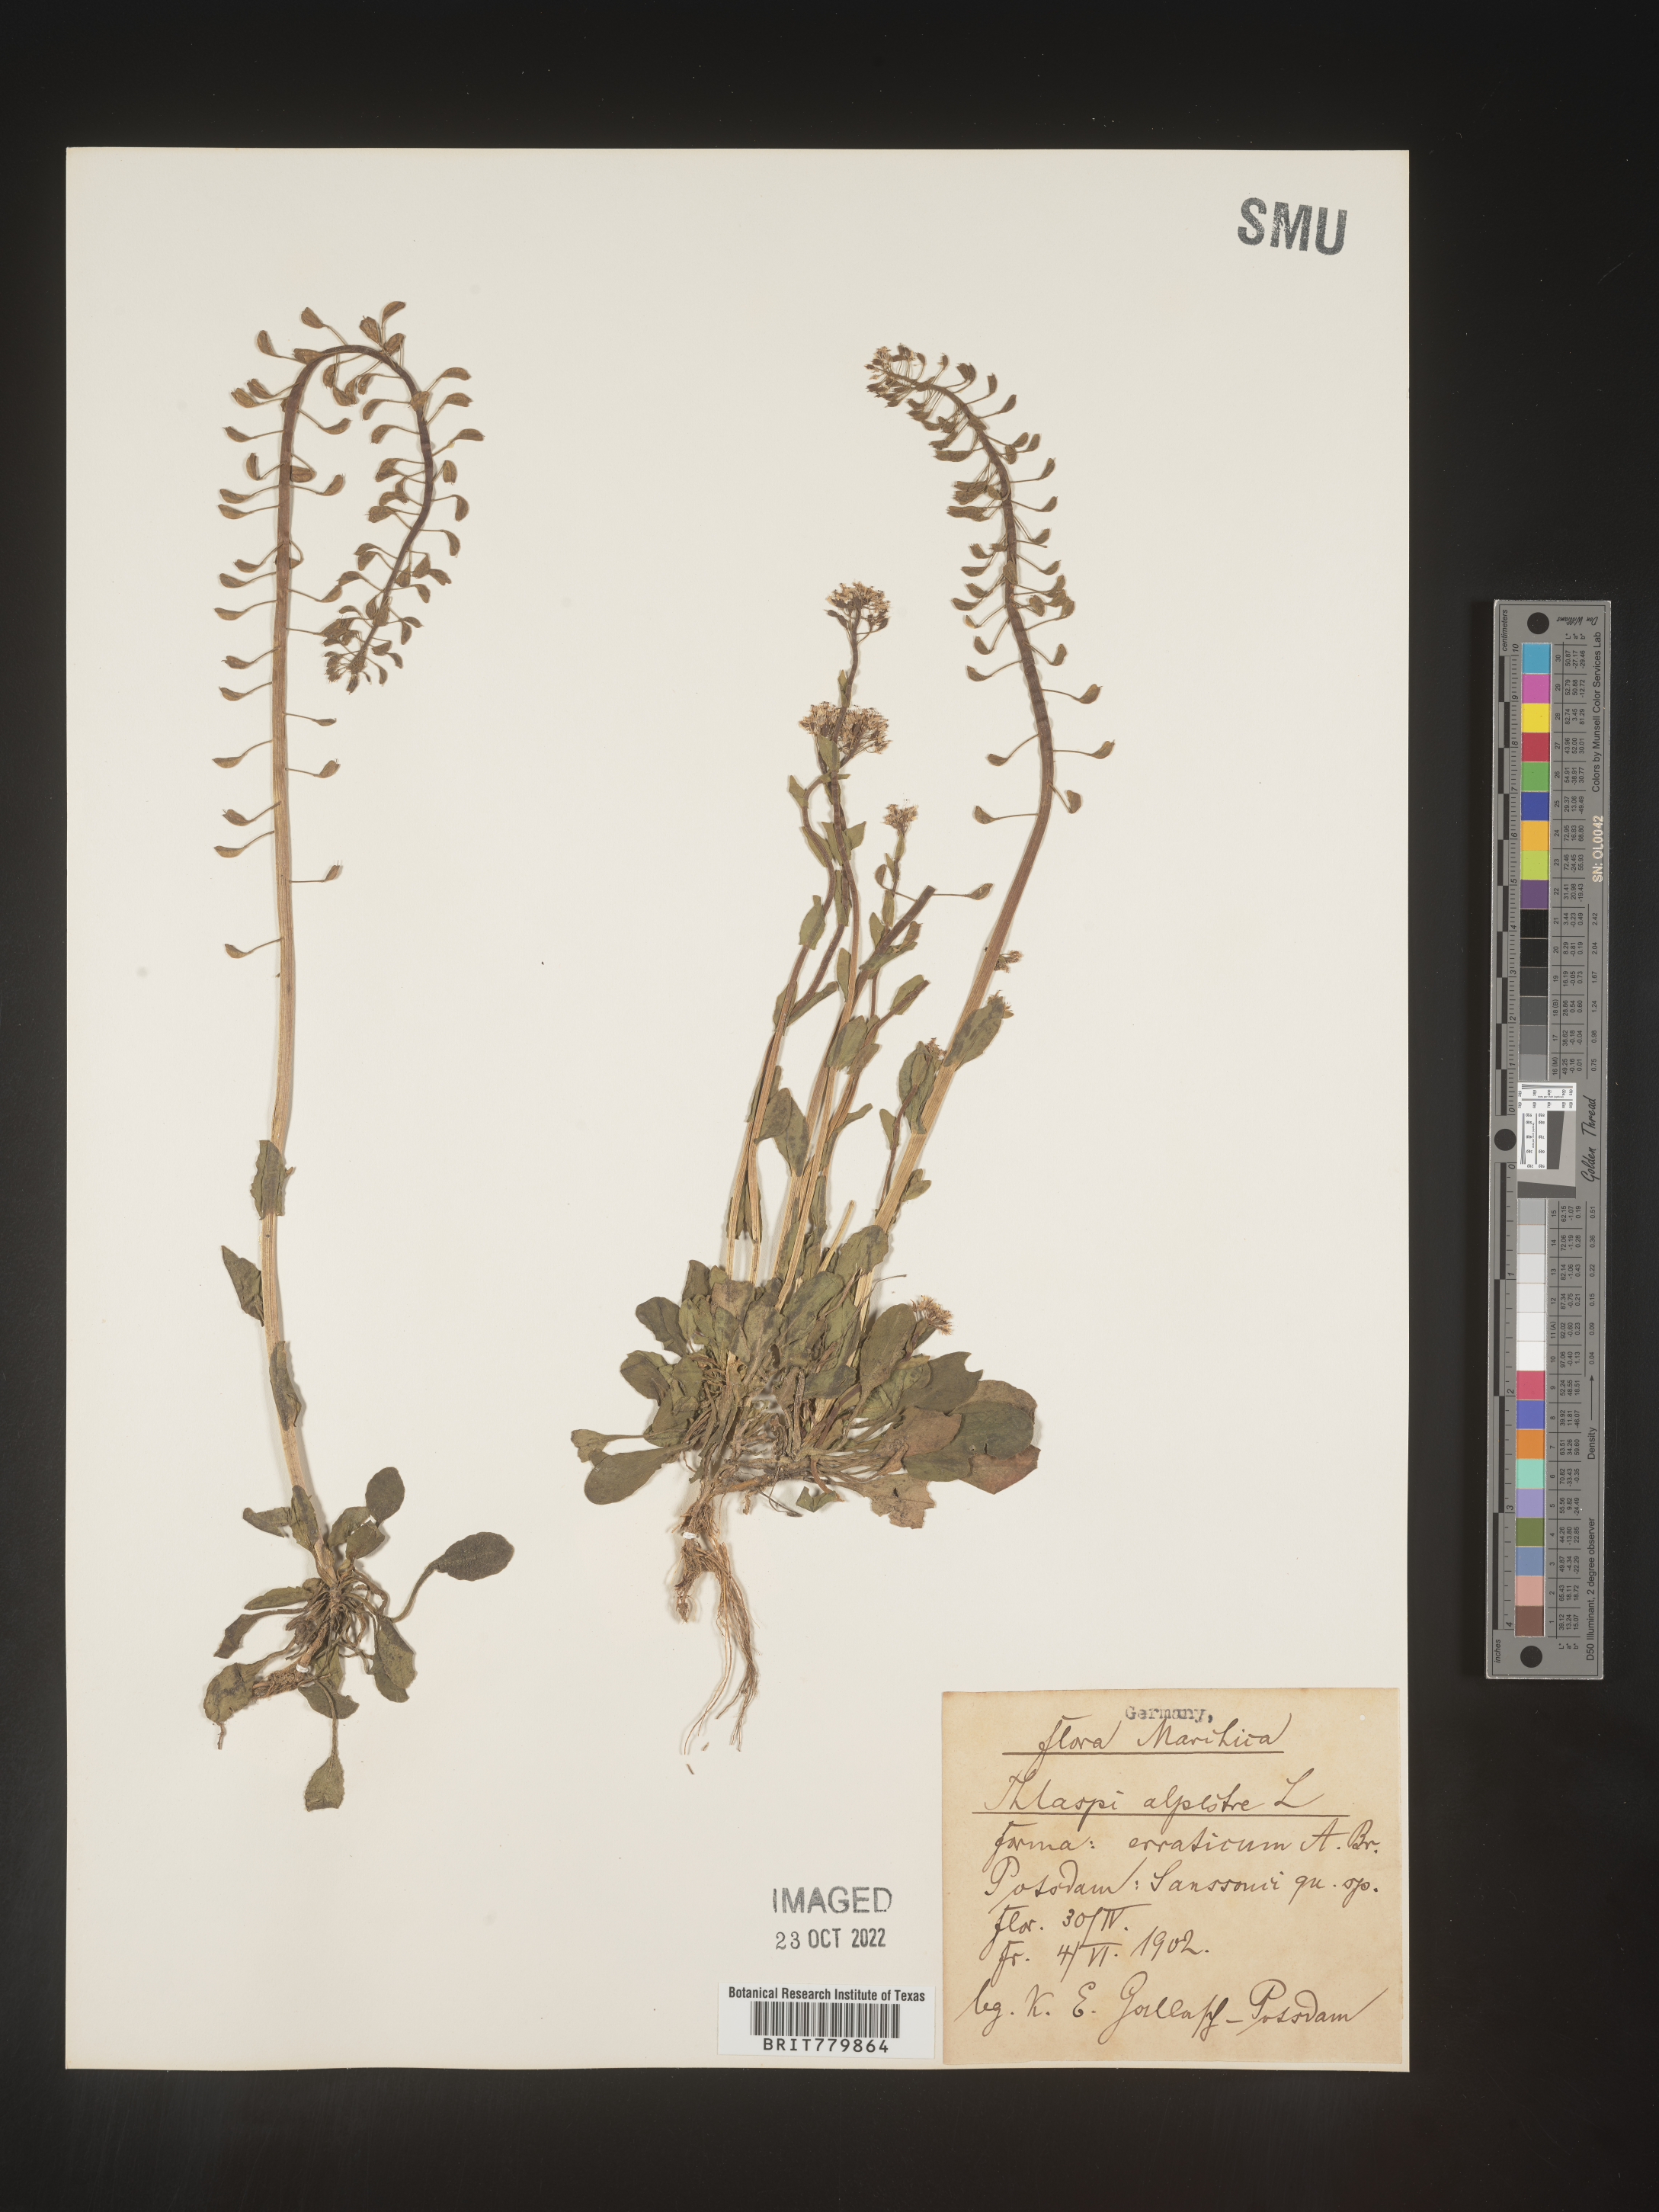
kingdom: Plantae
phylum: Tracheophyta
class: Magnoliopsida
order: Brassicales
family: Brassicaceae
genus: Thlaspi
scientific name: Thlaspi
